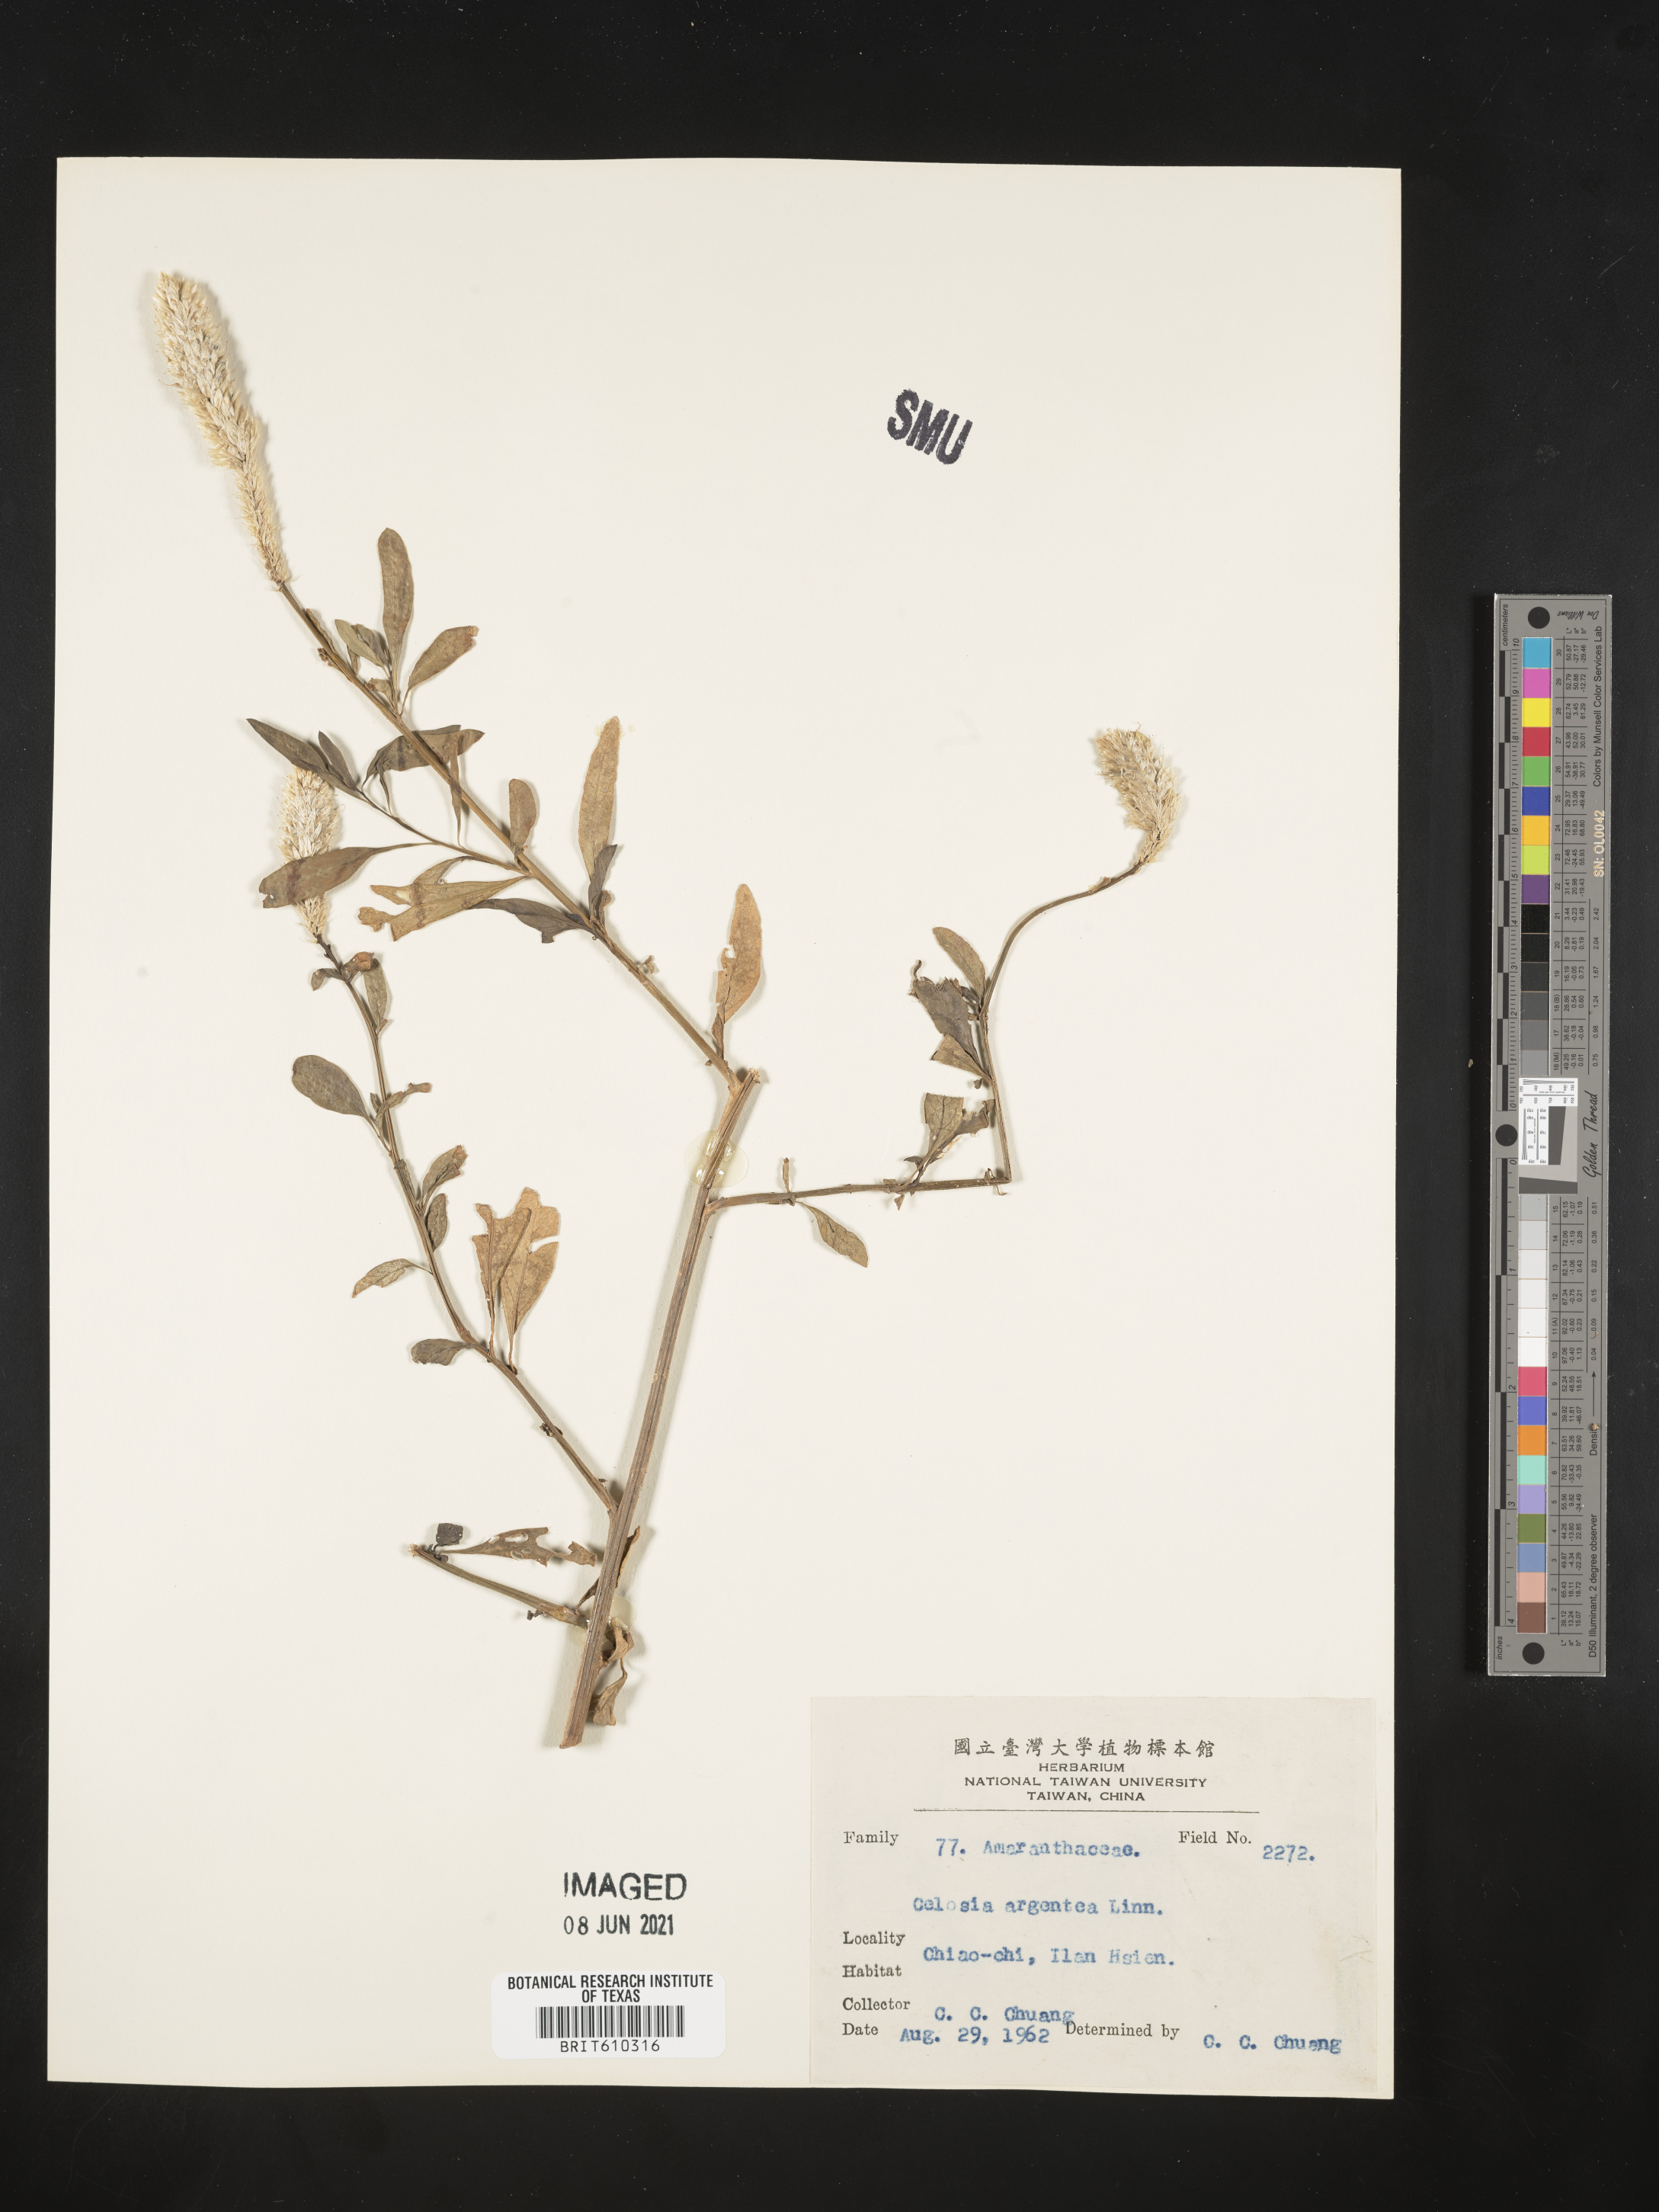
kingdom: Plantae
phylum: Tracheophyta
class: Magnoliopsida
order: Caryophyllales
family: Amaranthaceae
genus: Celosia
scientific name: Celosia argentea
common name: Feather cockscomb
